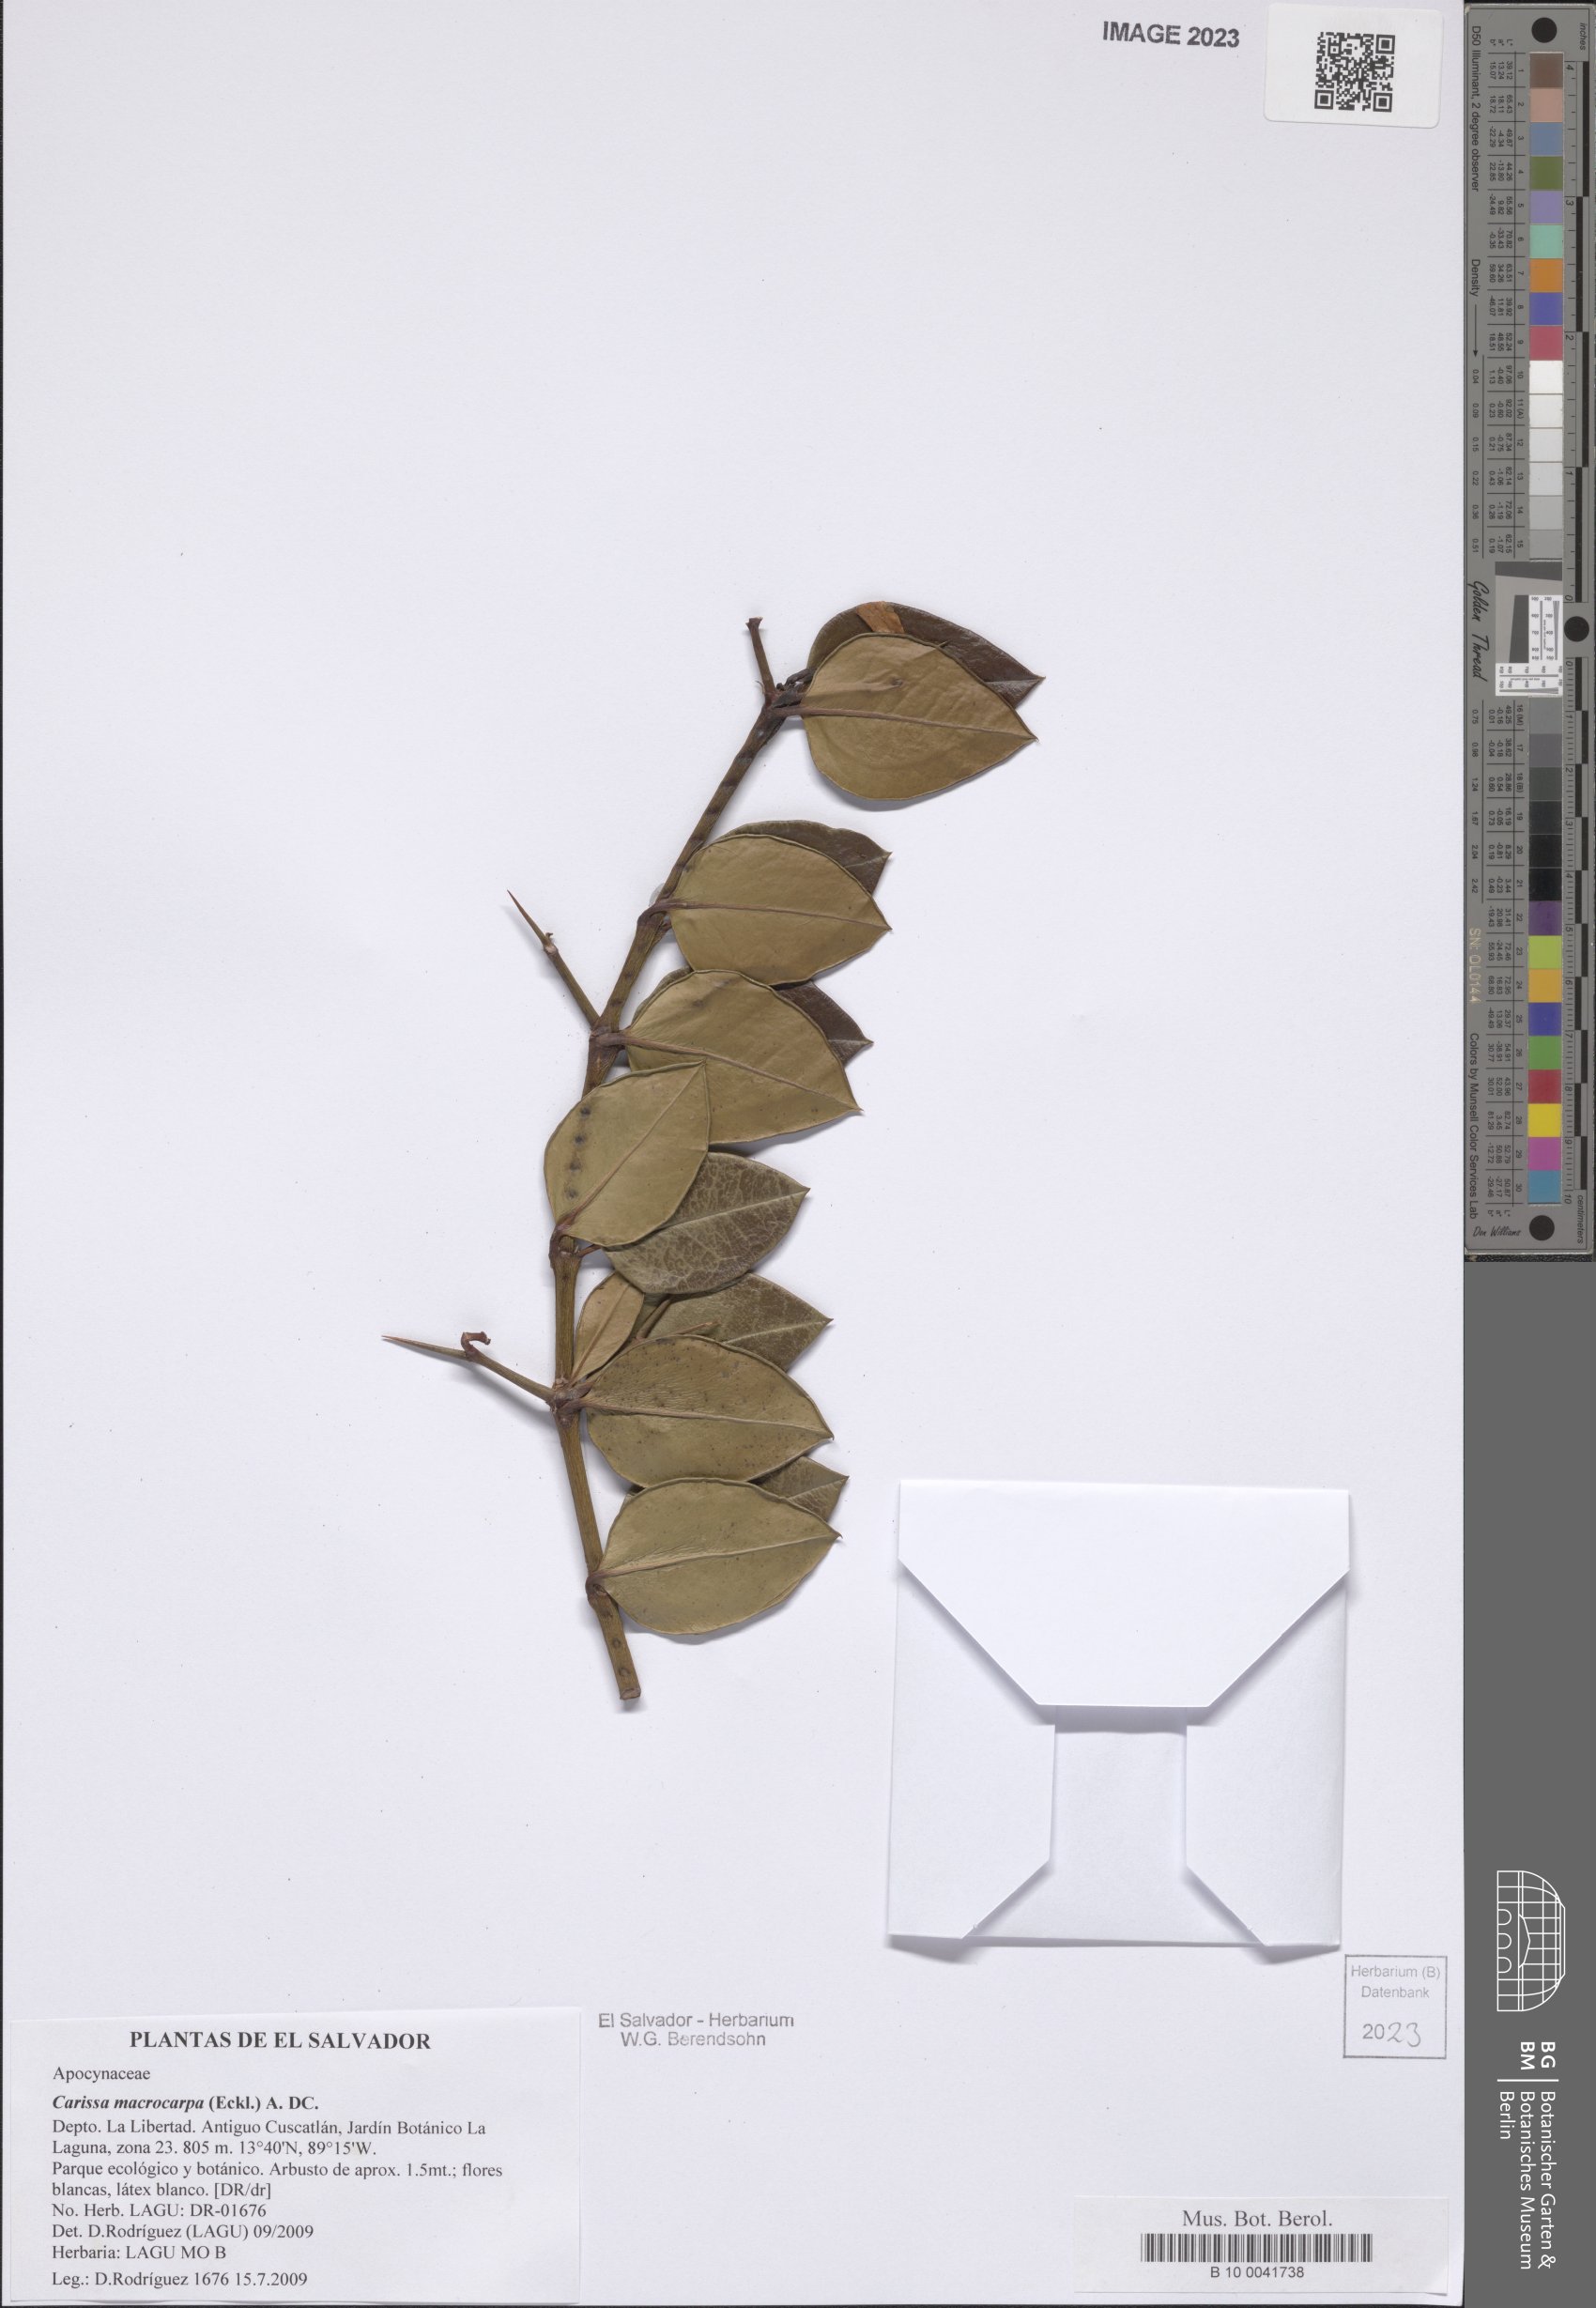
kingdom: Plantae
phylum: Tracheophyta
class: Magnoliopsida
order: Gentianales
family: Apocynaceae
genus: Carissa
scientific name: Carissa macrocarpa
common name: Natal plum
